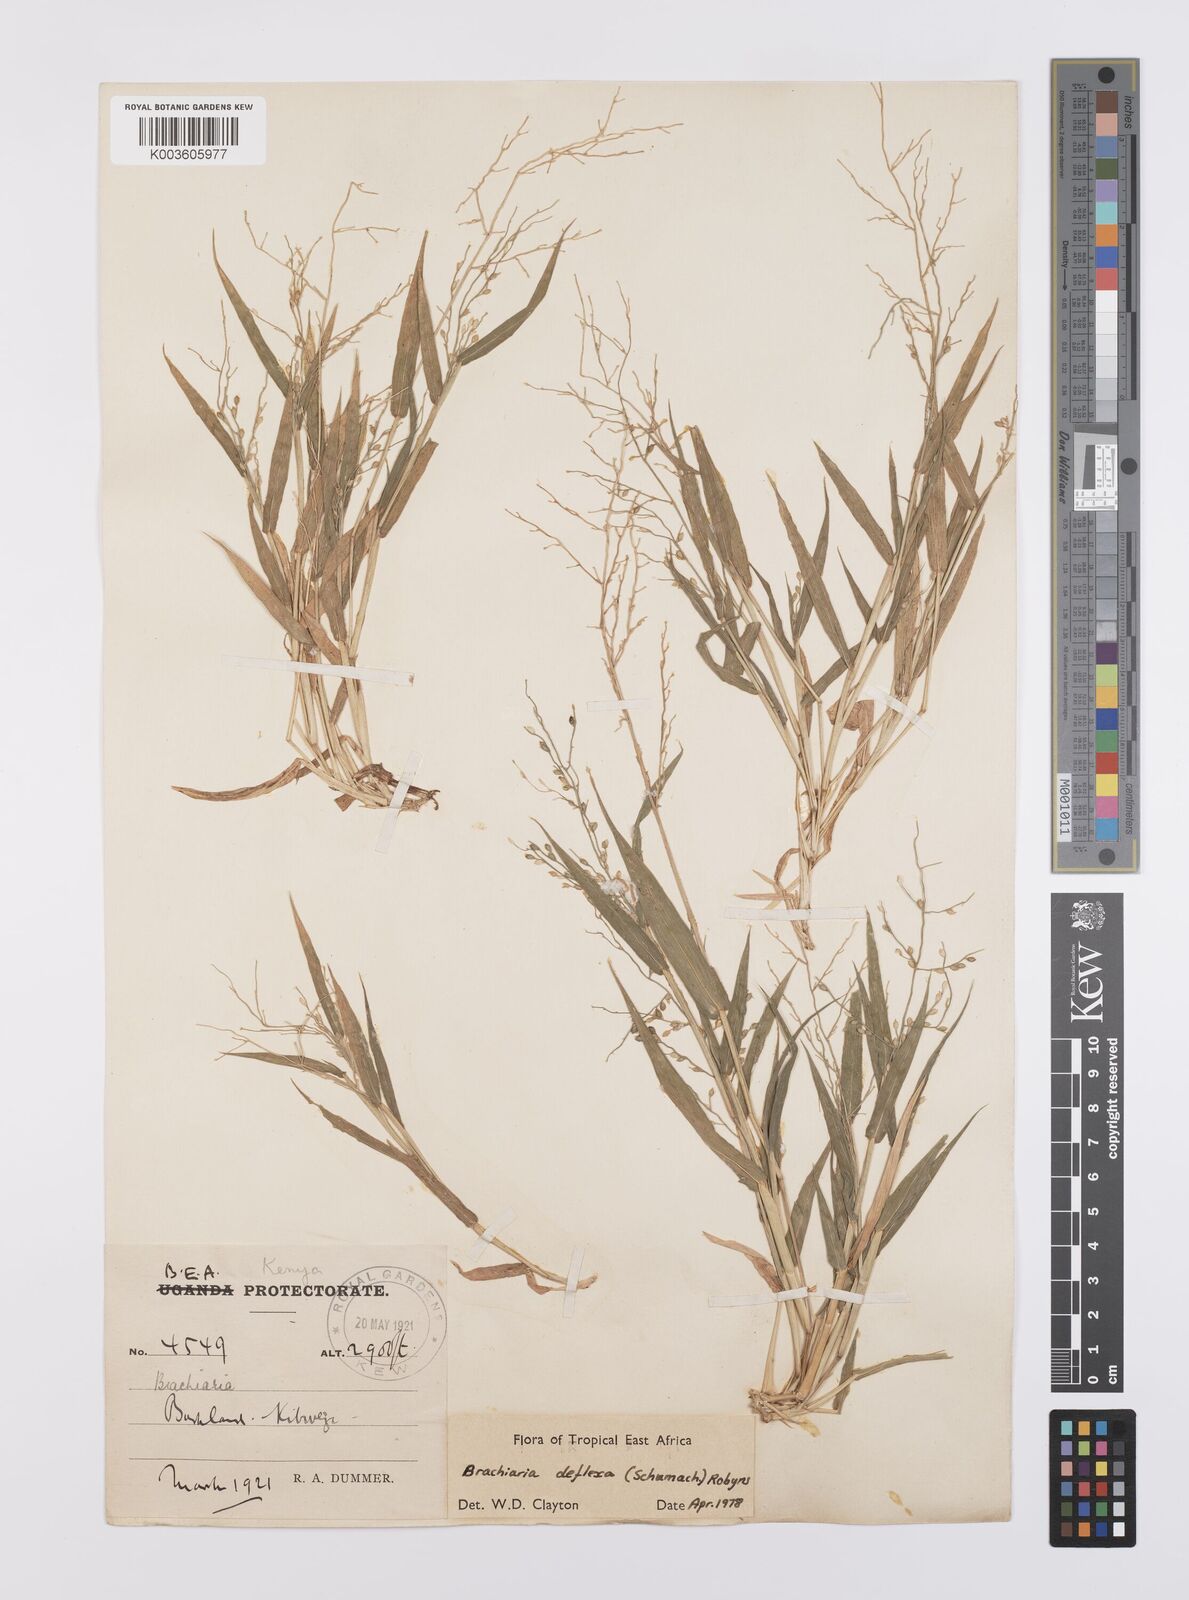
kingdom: Plantae
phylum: Tracheophyta
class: Liliopsida
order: Poales
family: Poaceae
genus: Urochloa
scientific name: Urochloa deflexa
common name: Guinea millet
